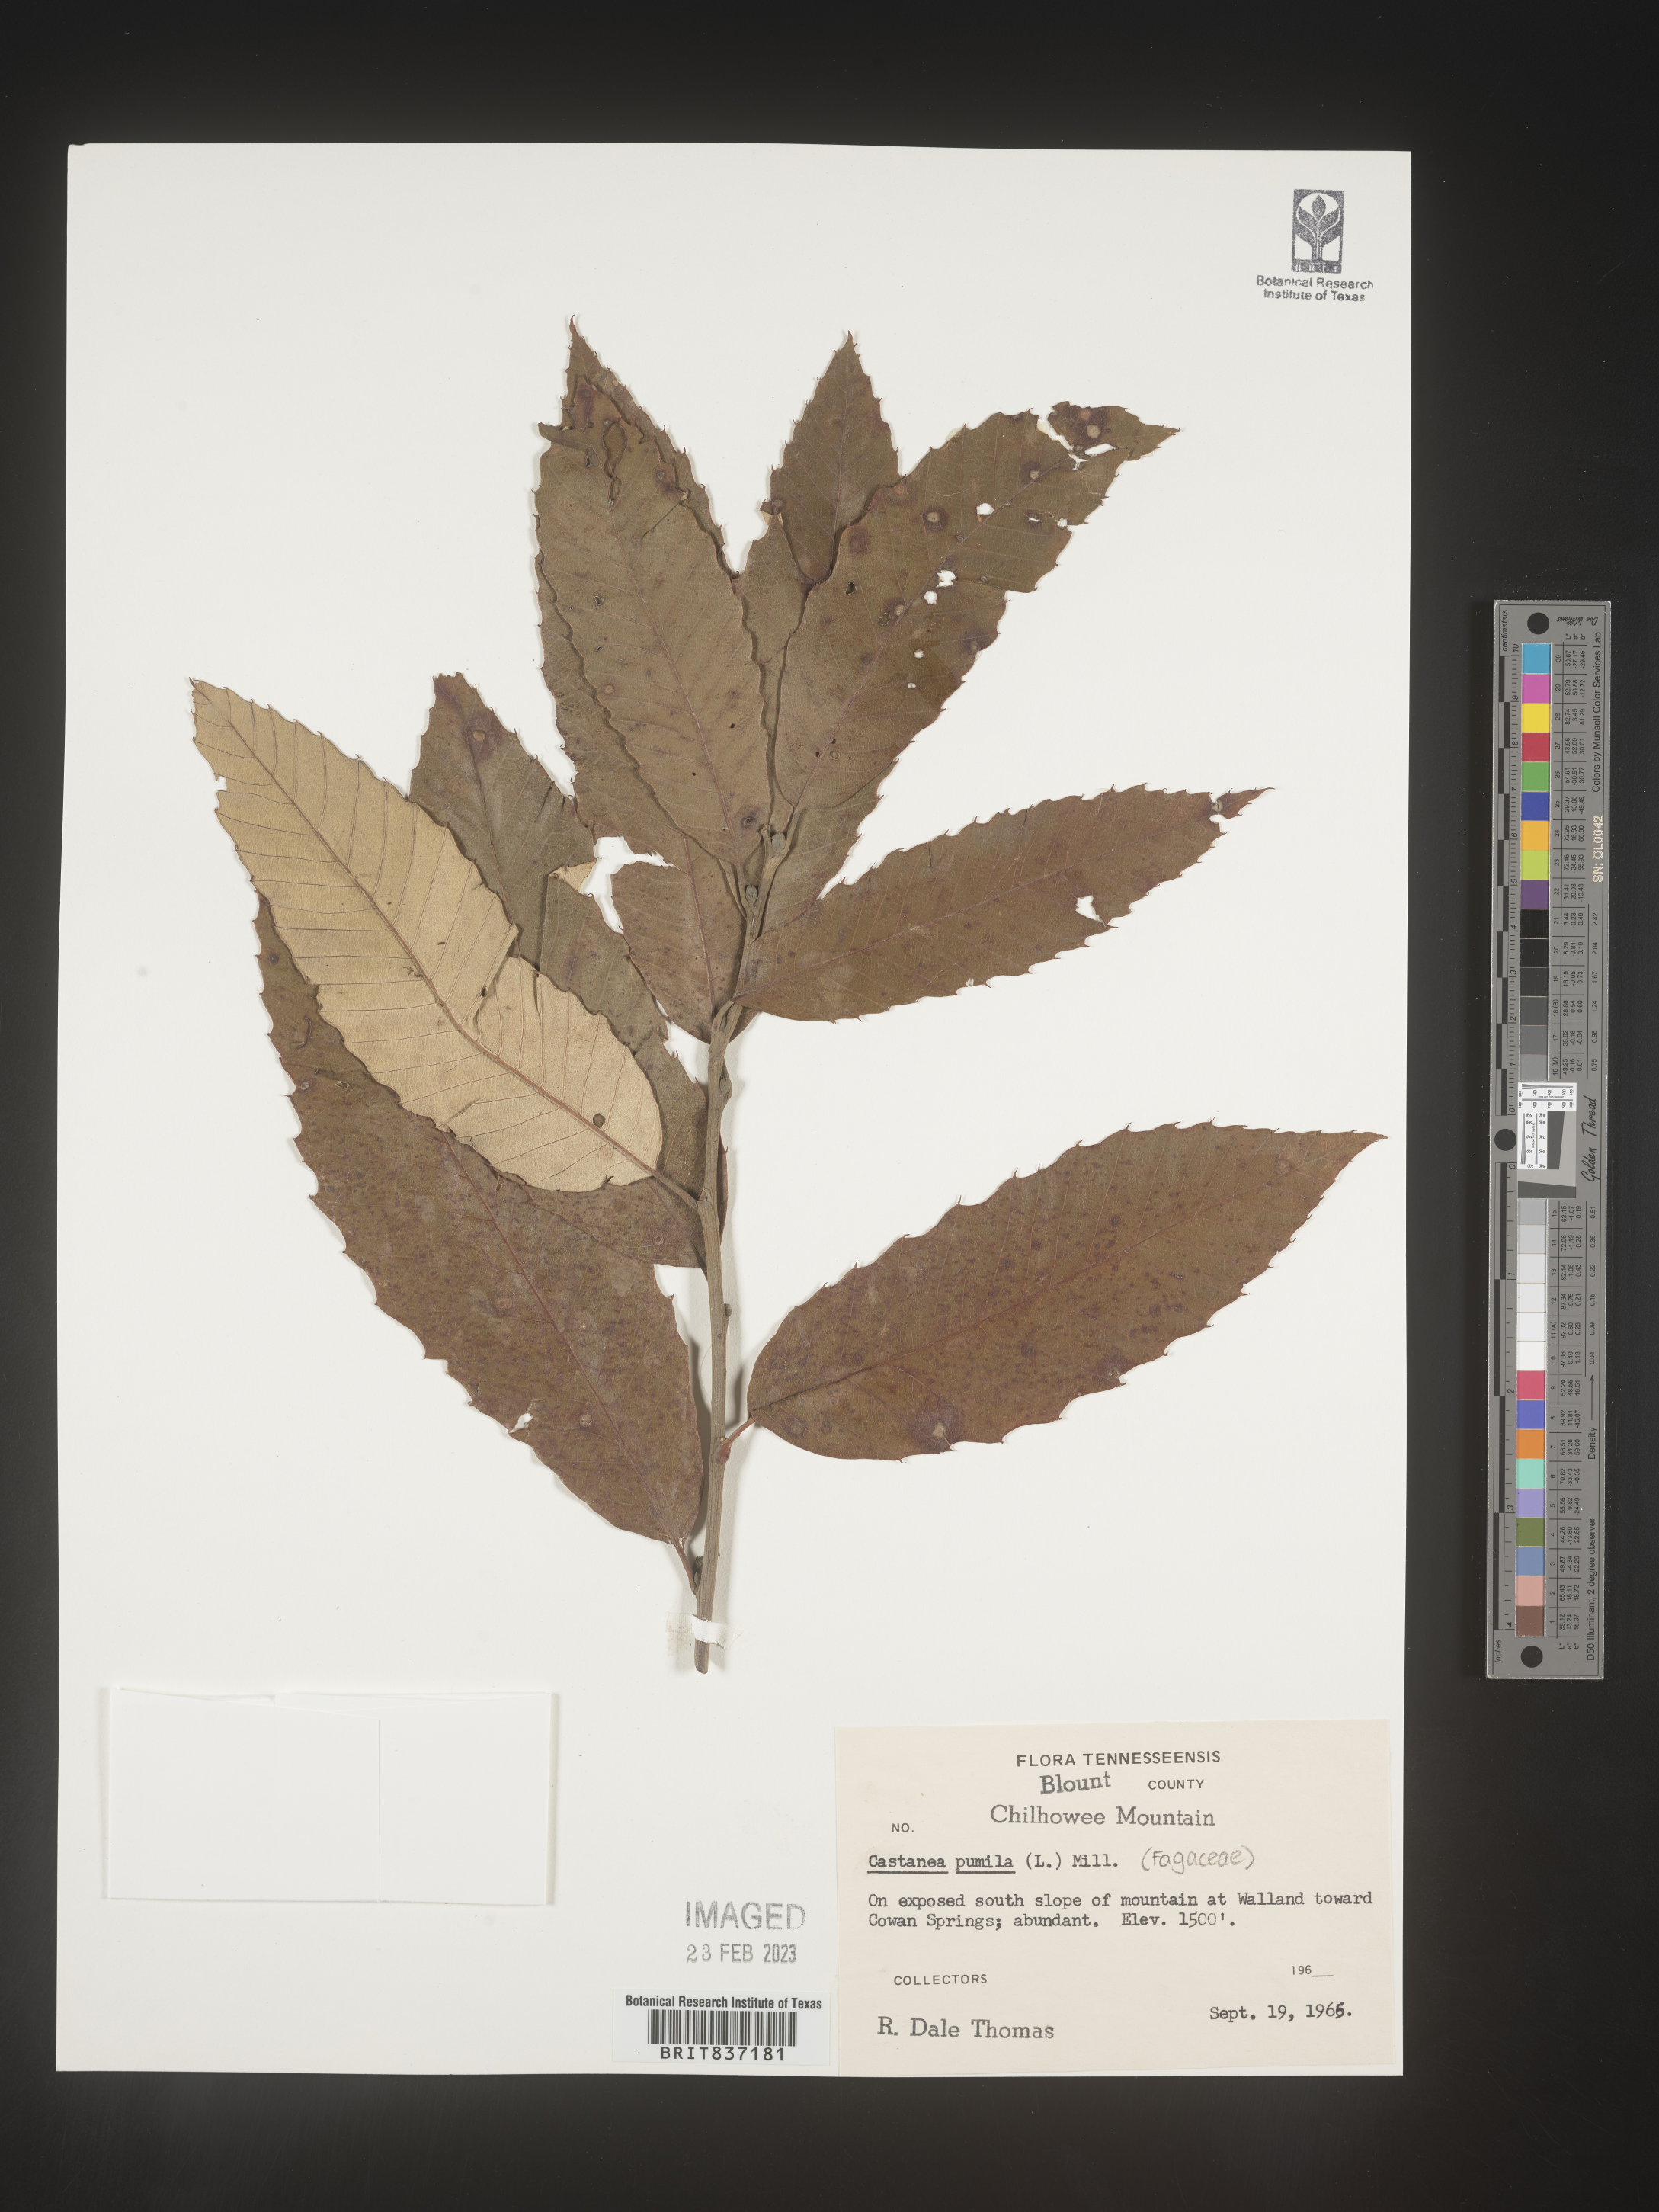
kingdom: Plantae
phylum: Tracheophyta
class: Magnoliopsida
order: Fagales
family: Fagaceae
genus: Castanea
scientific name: Castanea pumila
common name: Chinkapin
